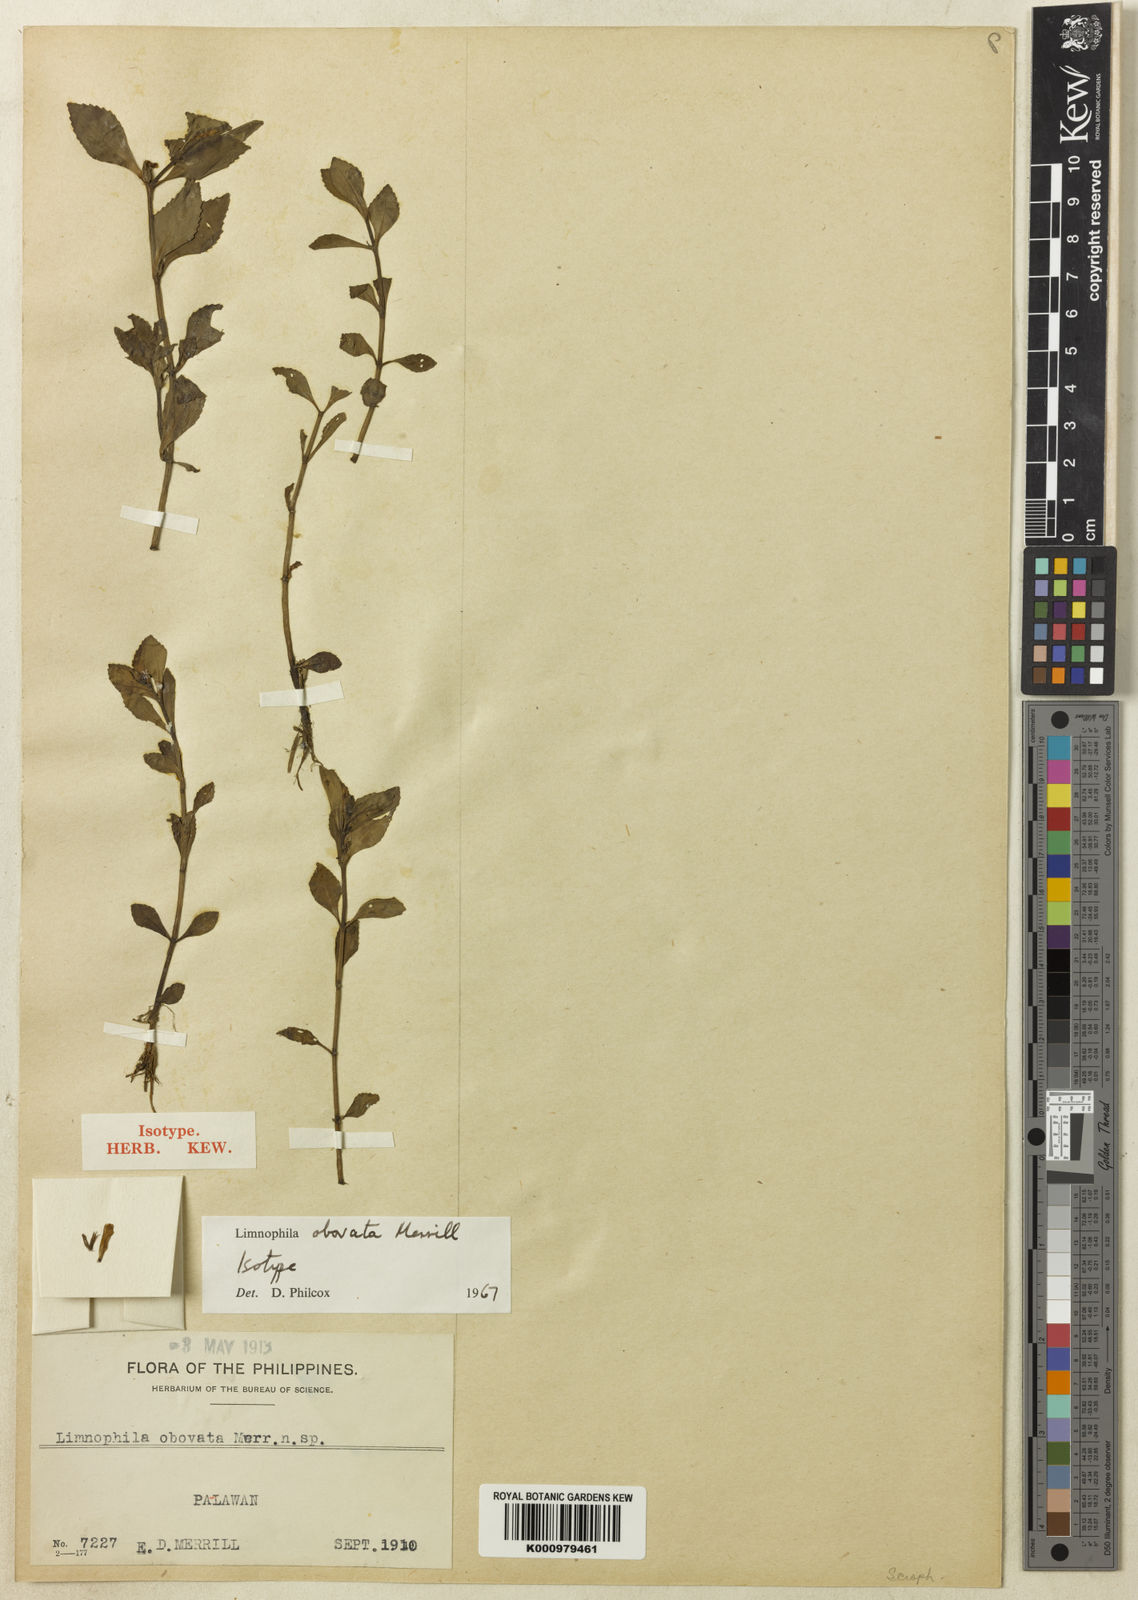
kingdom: Plantae
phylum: Tracheophyta
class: Magnoliopsida
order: Lamiales
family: Plantaginaceae
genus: Limnophila
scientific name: Limnophila obovata
